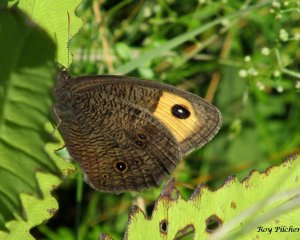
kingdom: Animalia
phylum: Arthropoda
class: Insecta
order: Lepidoptera
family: Nymphalidae
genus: Cercyonis
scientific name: Cercyonis pegala
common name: Common Wood-Nymph
